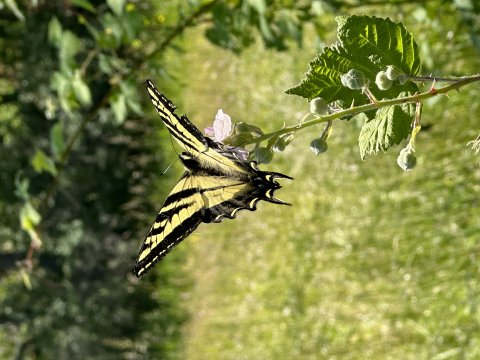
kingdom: Animalia
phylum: Arthropoda
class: Insecta
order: Lepidoptera
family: Papilionidae
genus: Pterourus
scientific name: Pterourus rutulus
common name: Western Tiger Swallowtail
